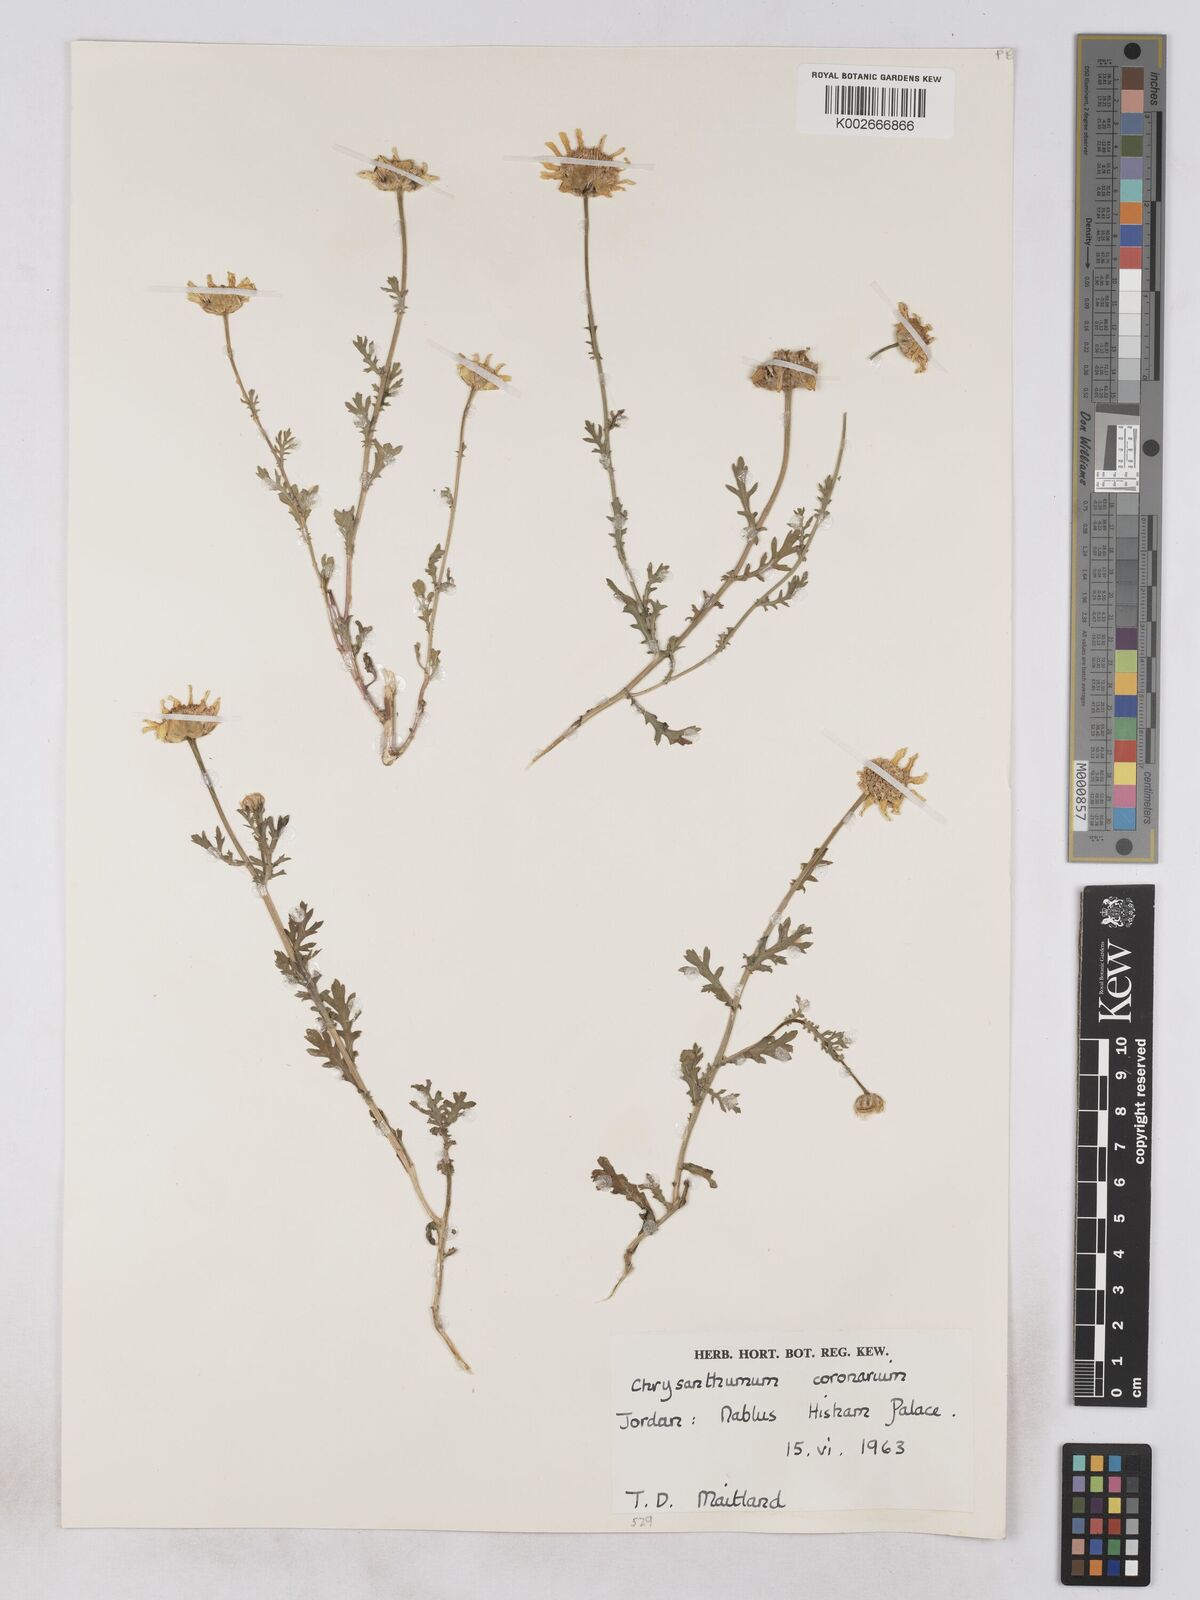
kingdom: Plantae
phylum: Tracheophyta
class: Magnoliopsida
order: Asterales
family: Asteraceae
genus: Glebionis
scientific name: Glebionis coronaria
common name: Crowndaisy
